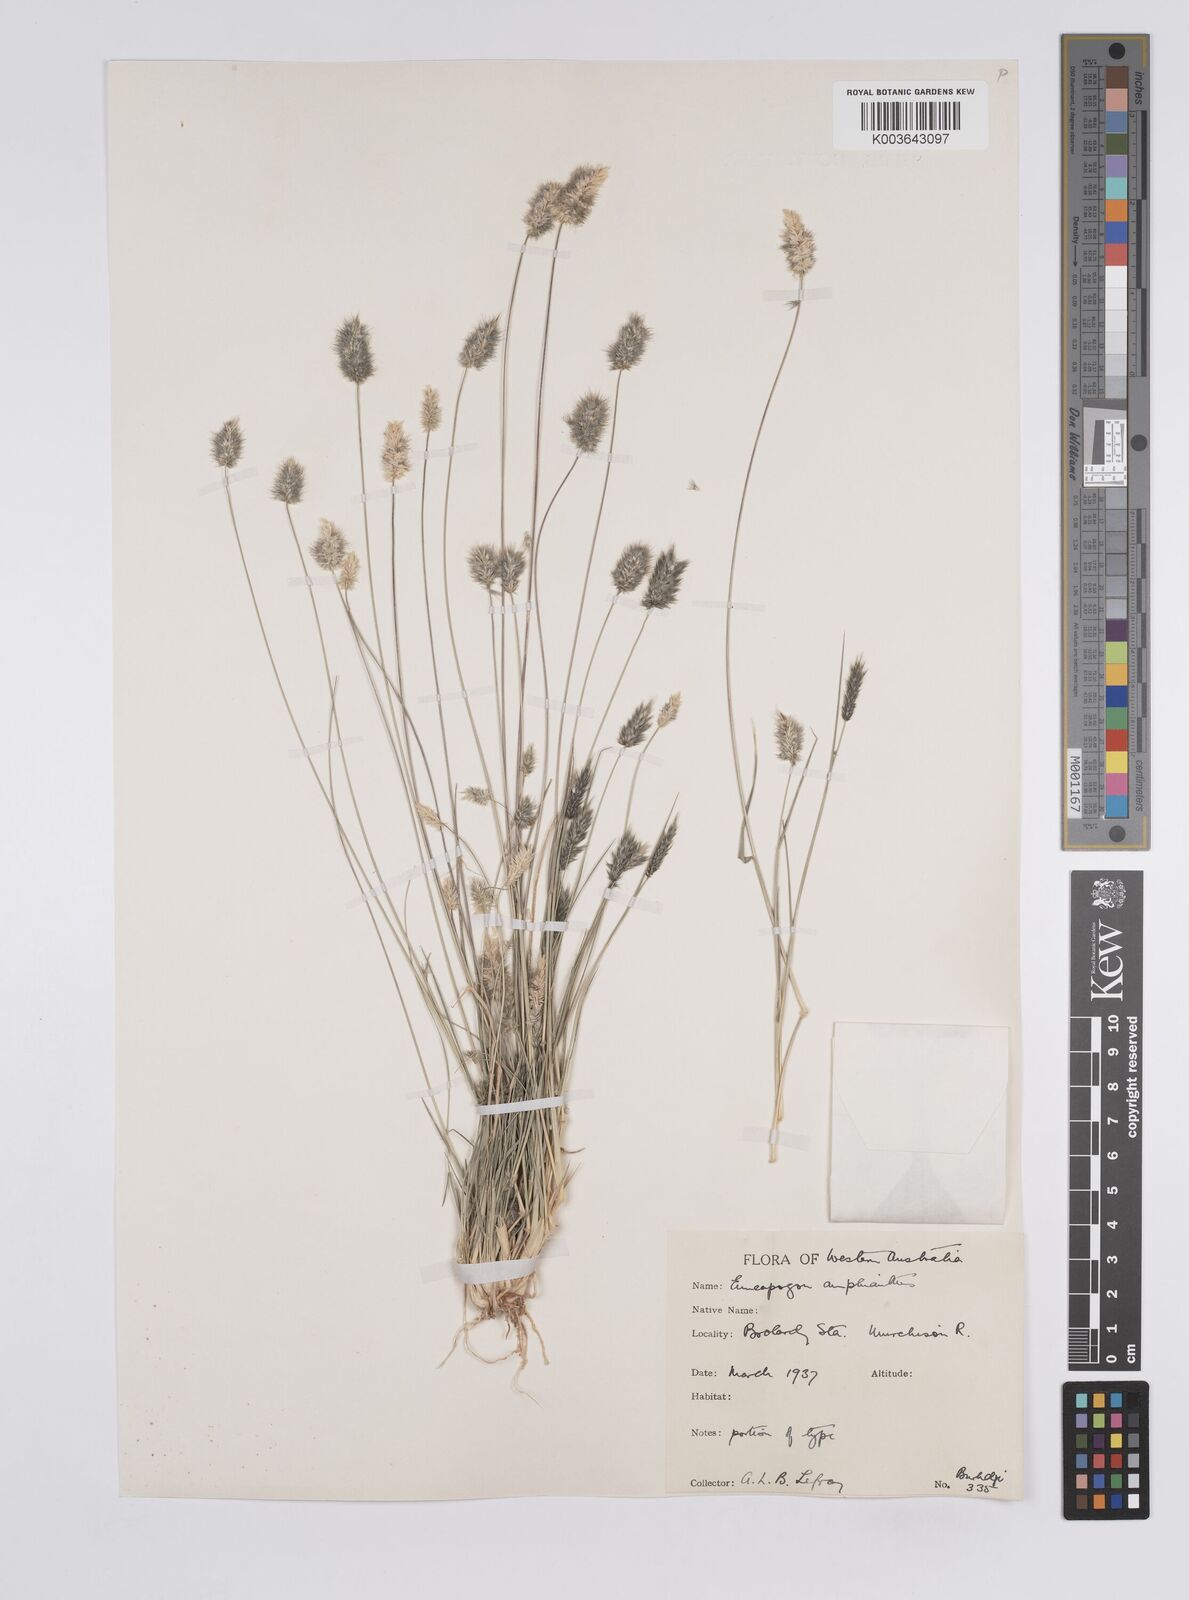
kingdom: Plantae
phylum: Tracheophyta
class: Liliopsida
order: Poales
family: Poaceae
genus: Enneapogon
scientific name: Enneapogon caerulescens
